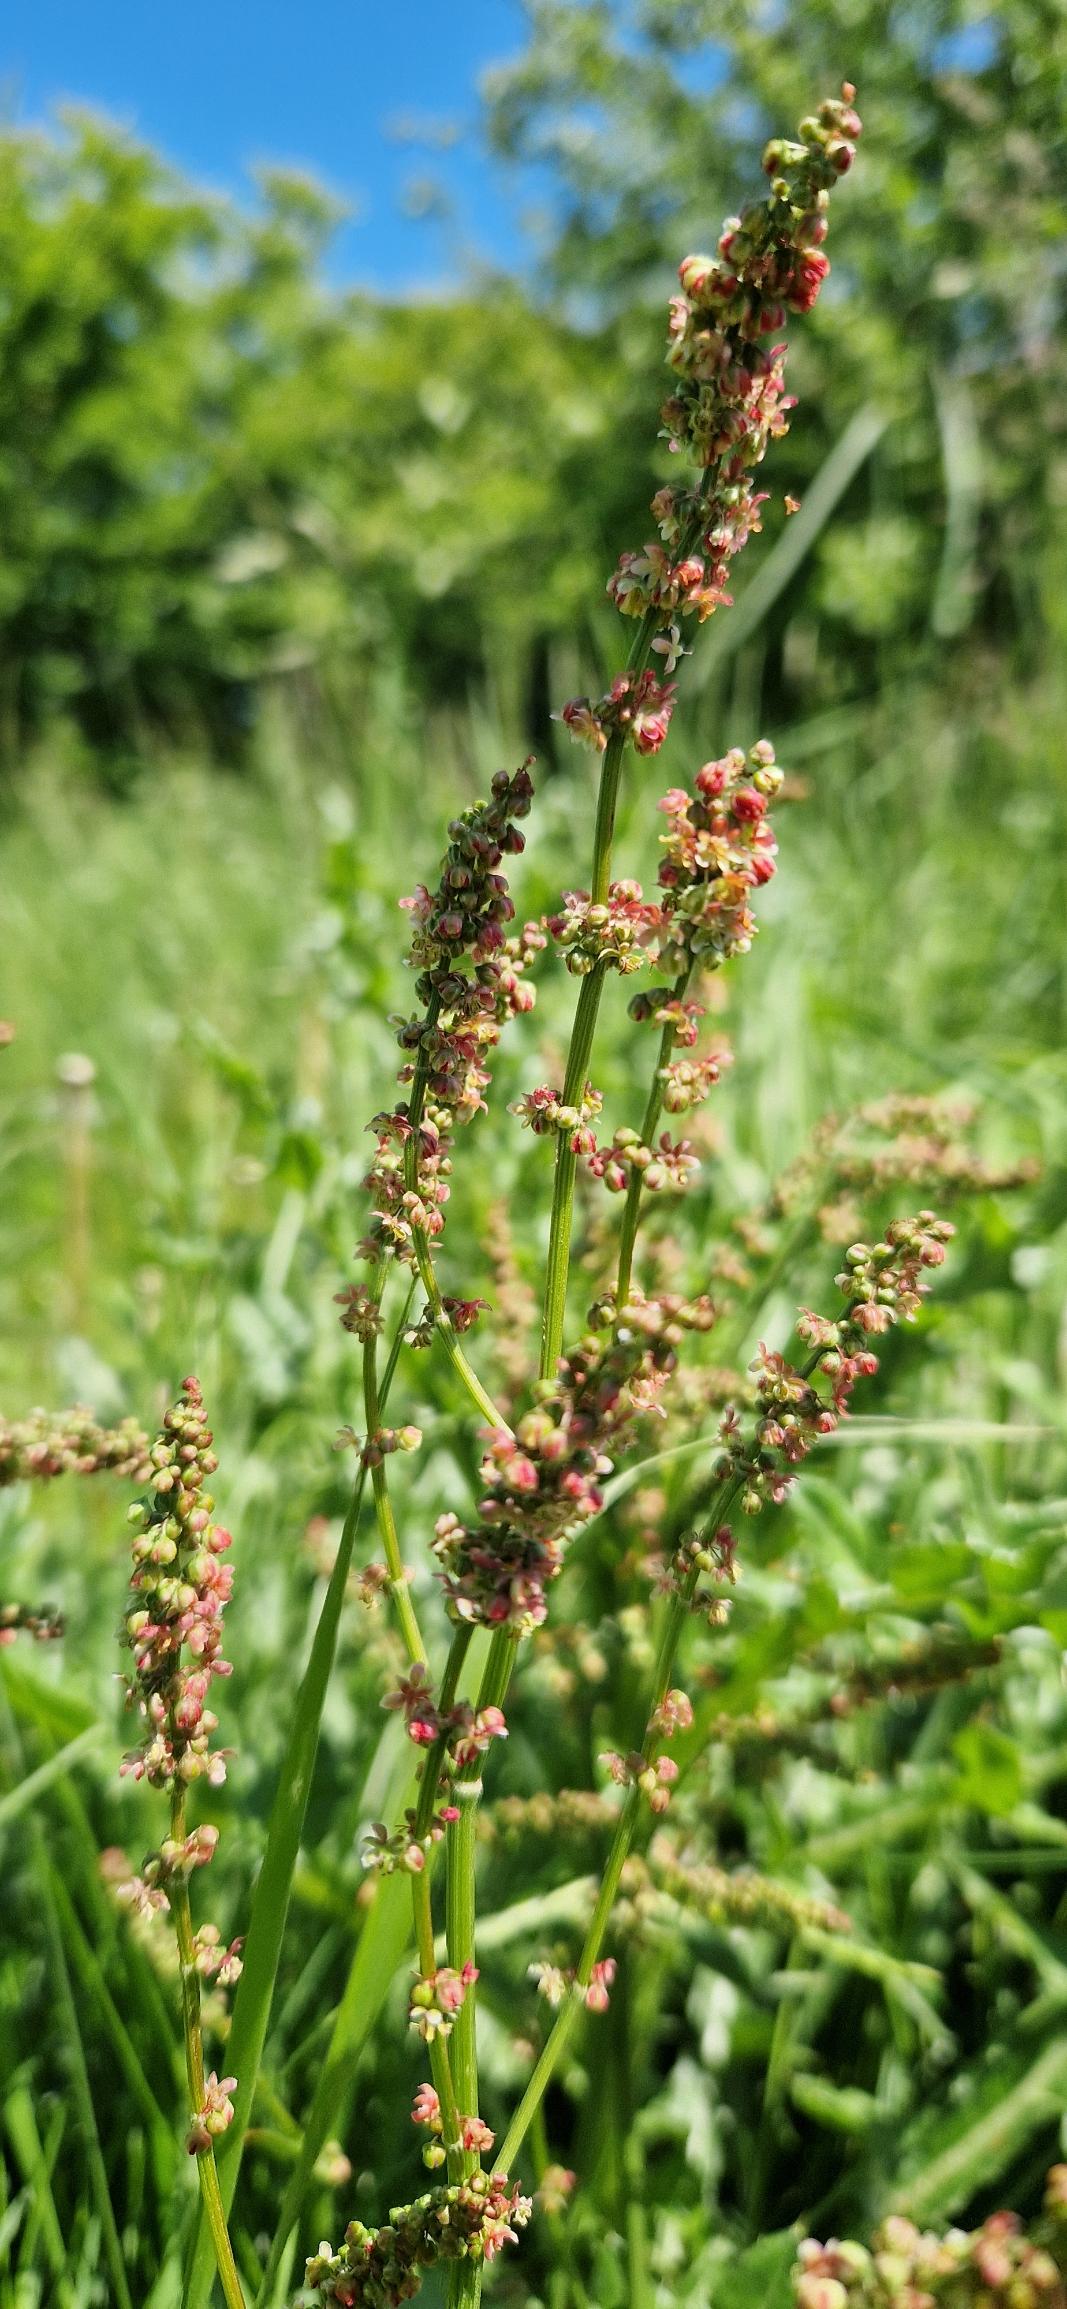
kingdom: Plantae
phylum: Tracheophyta
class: Magnoliopsida
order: Caryophyllales
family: Polygonaceae
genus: Rumex
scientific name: Rumex acetosa
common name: Almindelig syre
